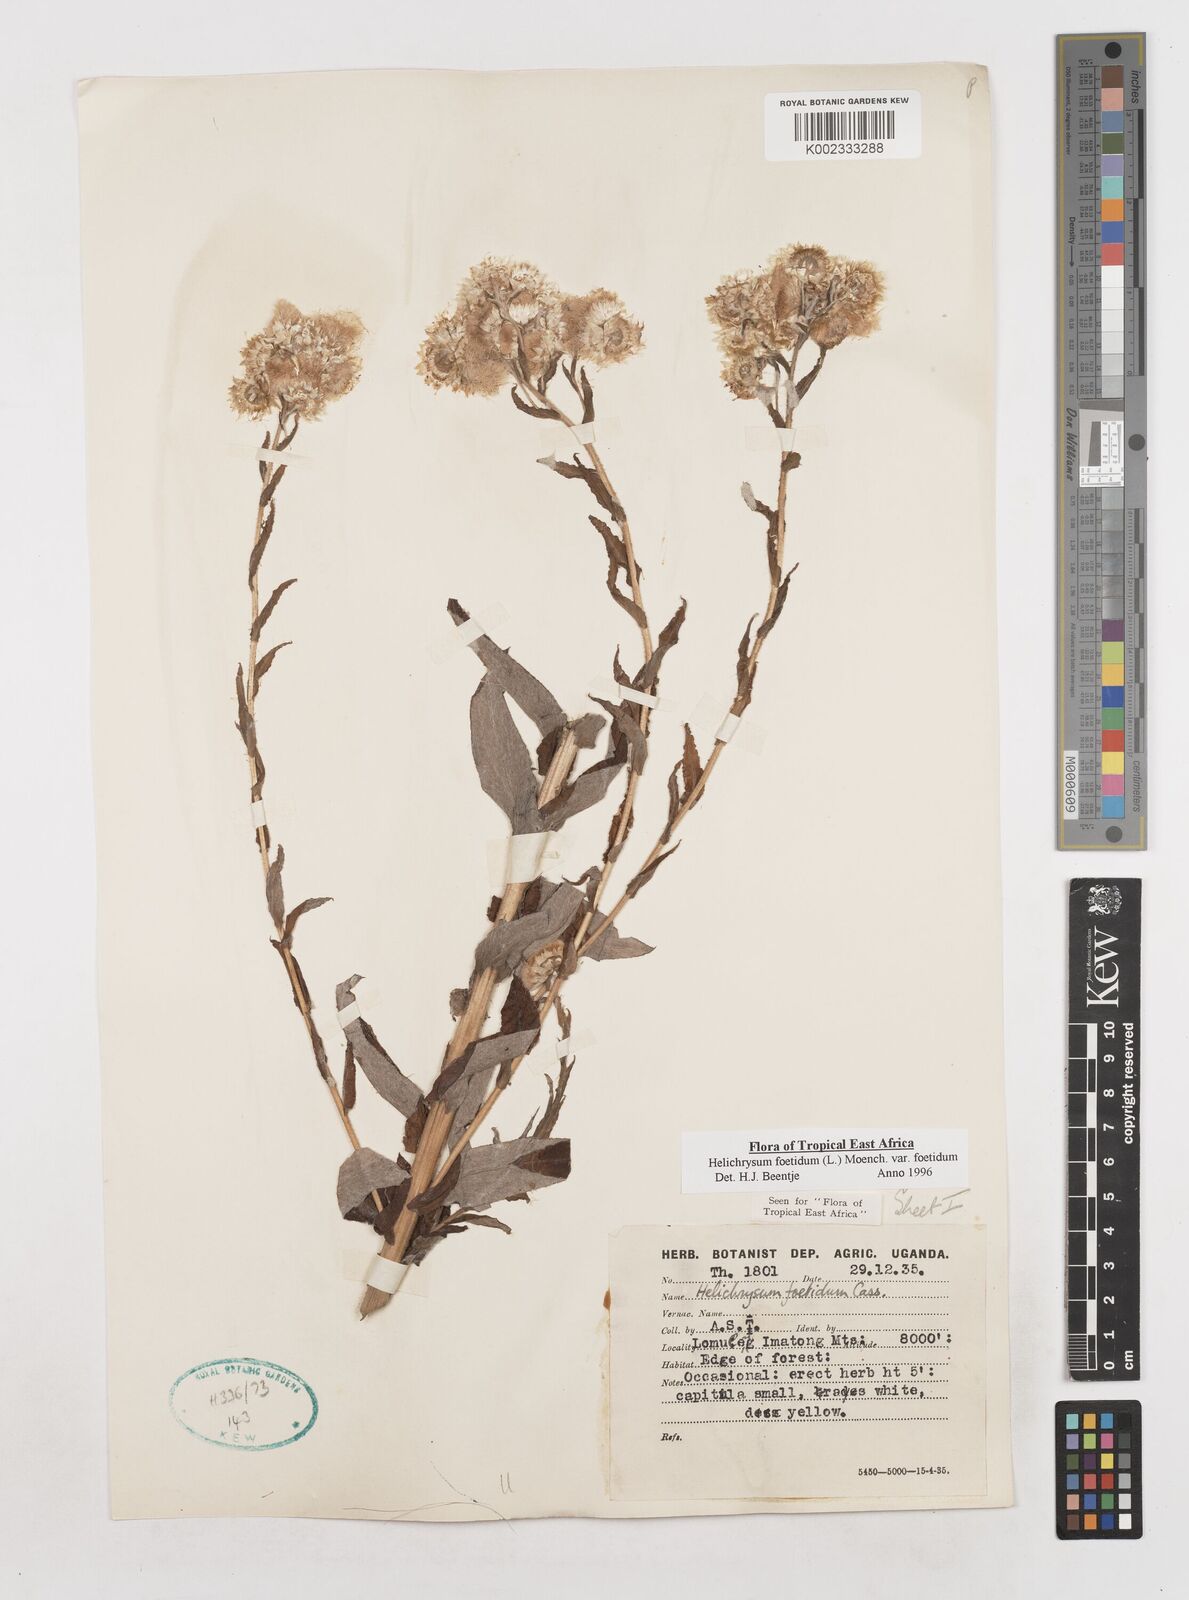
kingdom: Plantae
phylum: Tracheophyta
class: Magnoliopsida
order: Asterales
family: Asteraceae
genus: Helichrysum
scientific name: Helichrysum foetidum
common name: Stinking everlasting
